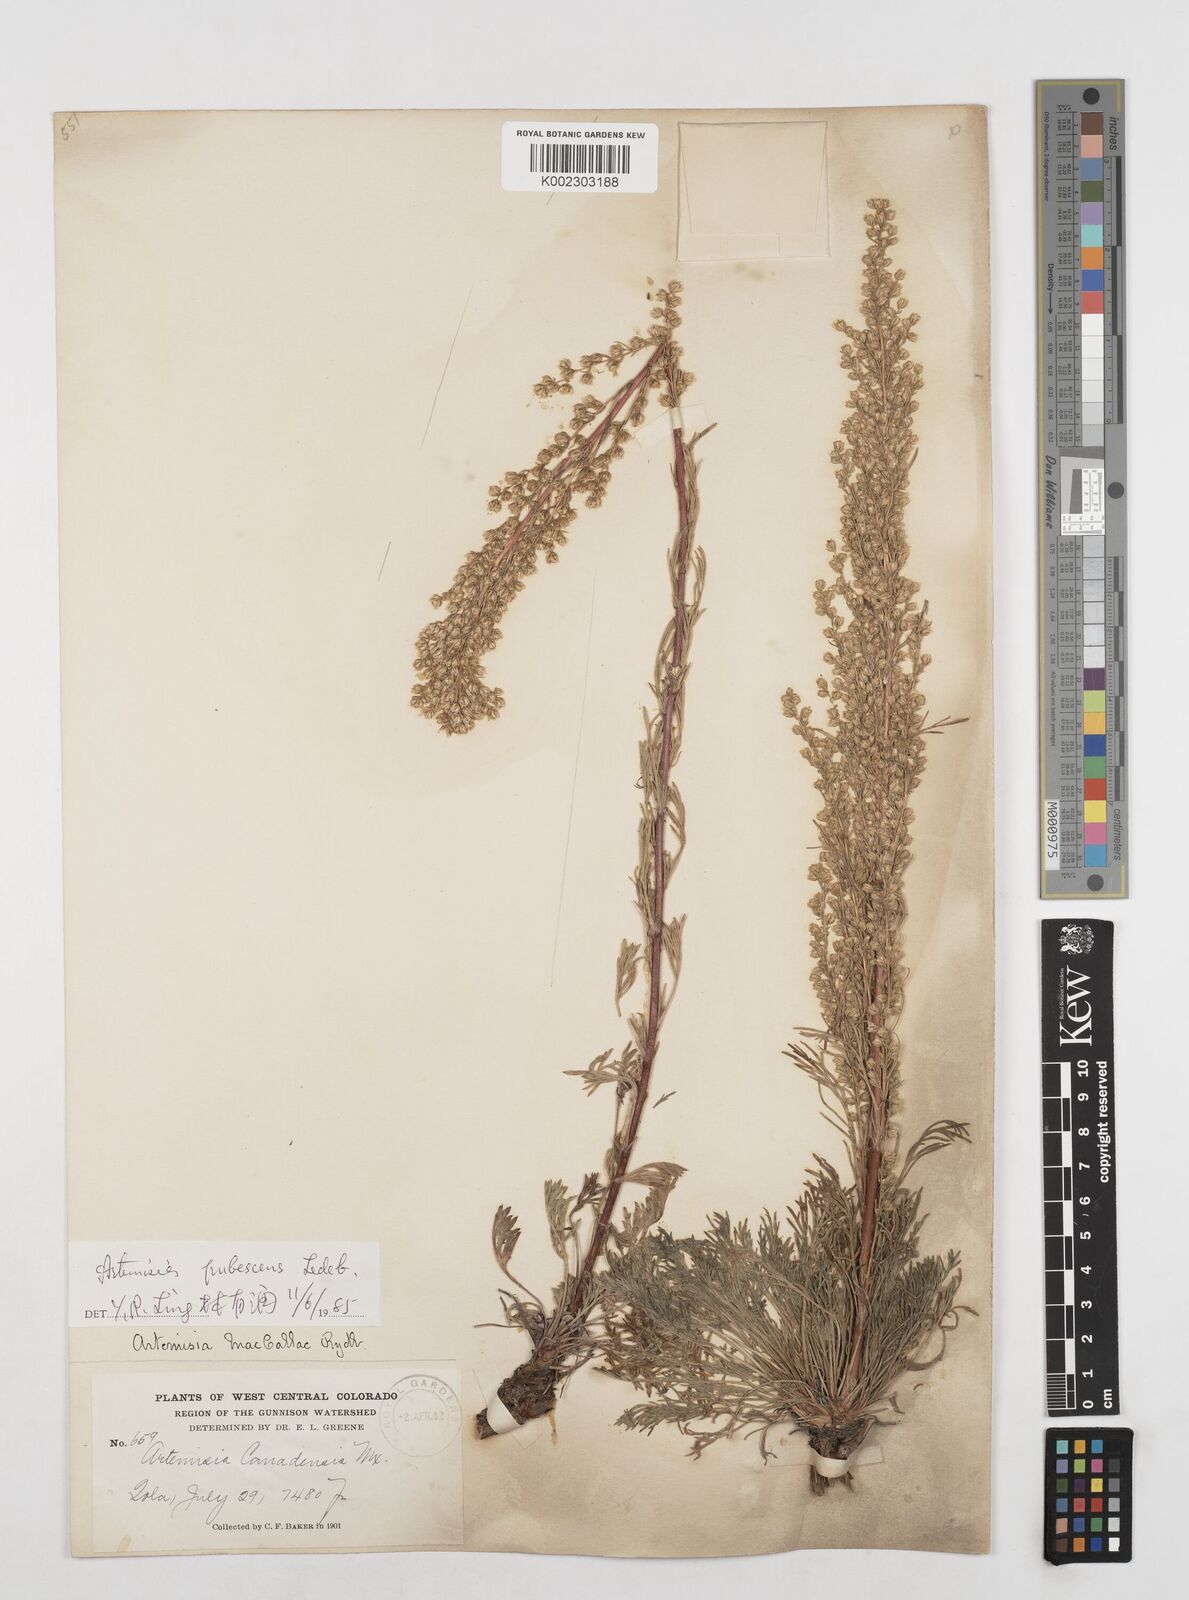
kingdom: Plantae
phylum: Tracheophyta
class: Magnoliopsida
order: Asterales
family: Asteraceae
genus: Artemisia
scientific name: Artemisia campestris
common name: Field wormwood
